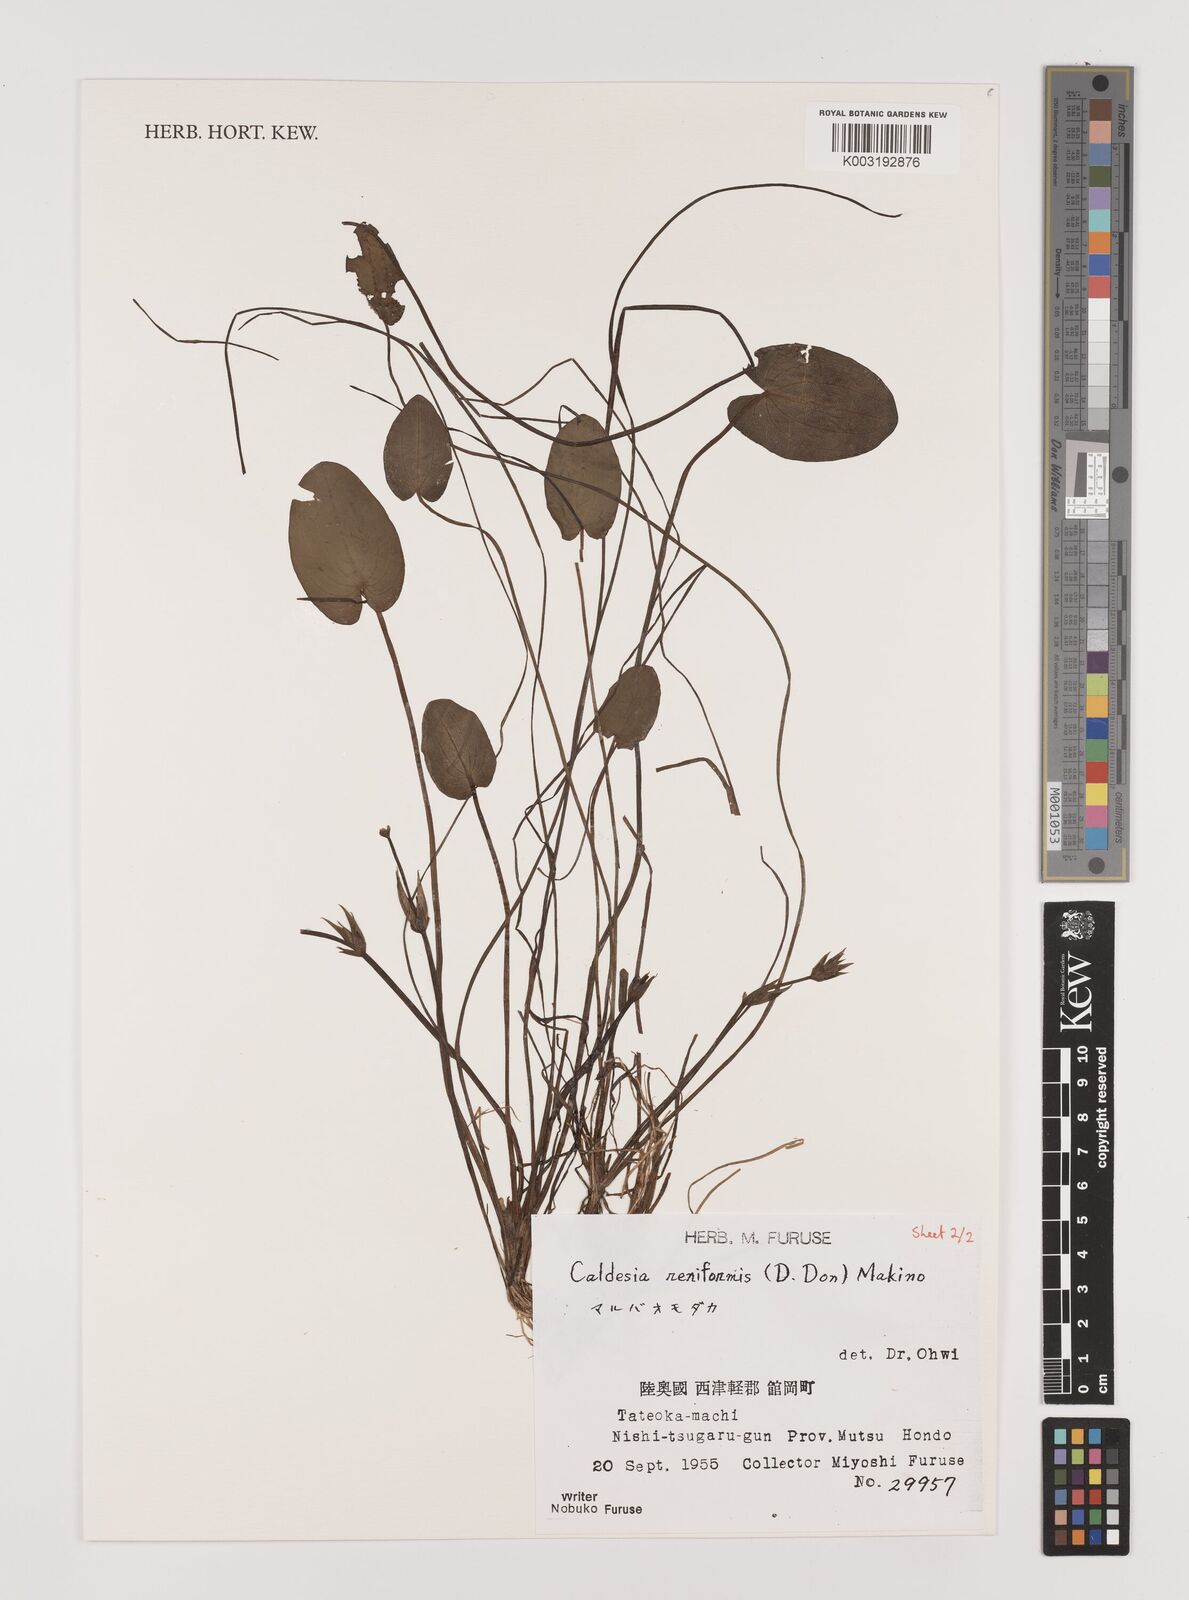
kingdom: Plantae
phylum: Tracheophyta
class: Liliopsida
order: Alismatales
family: Alismataceae
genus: Caldesia
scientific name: Caldesia parnassifolia
